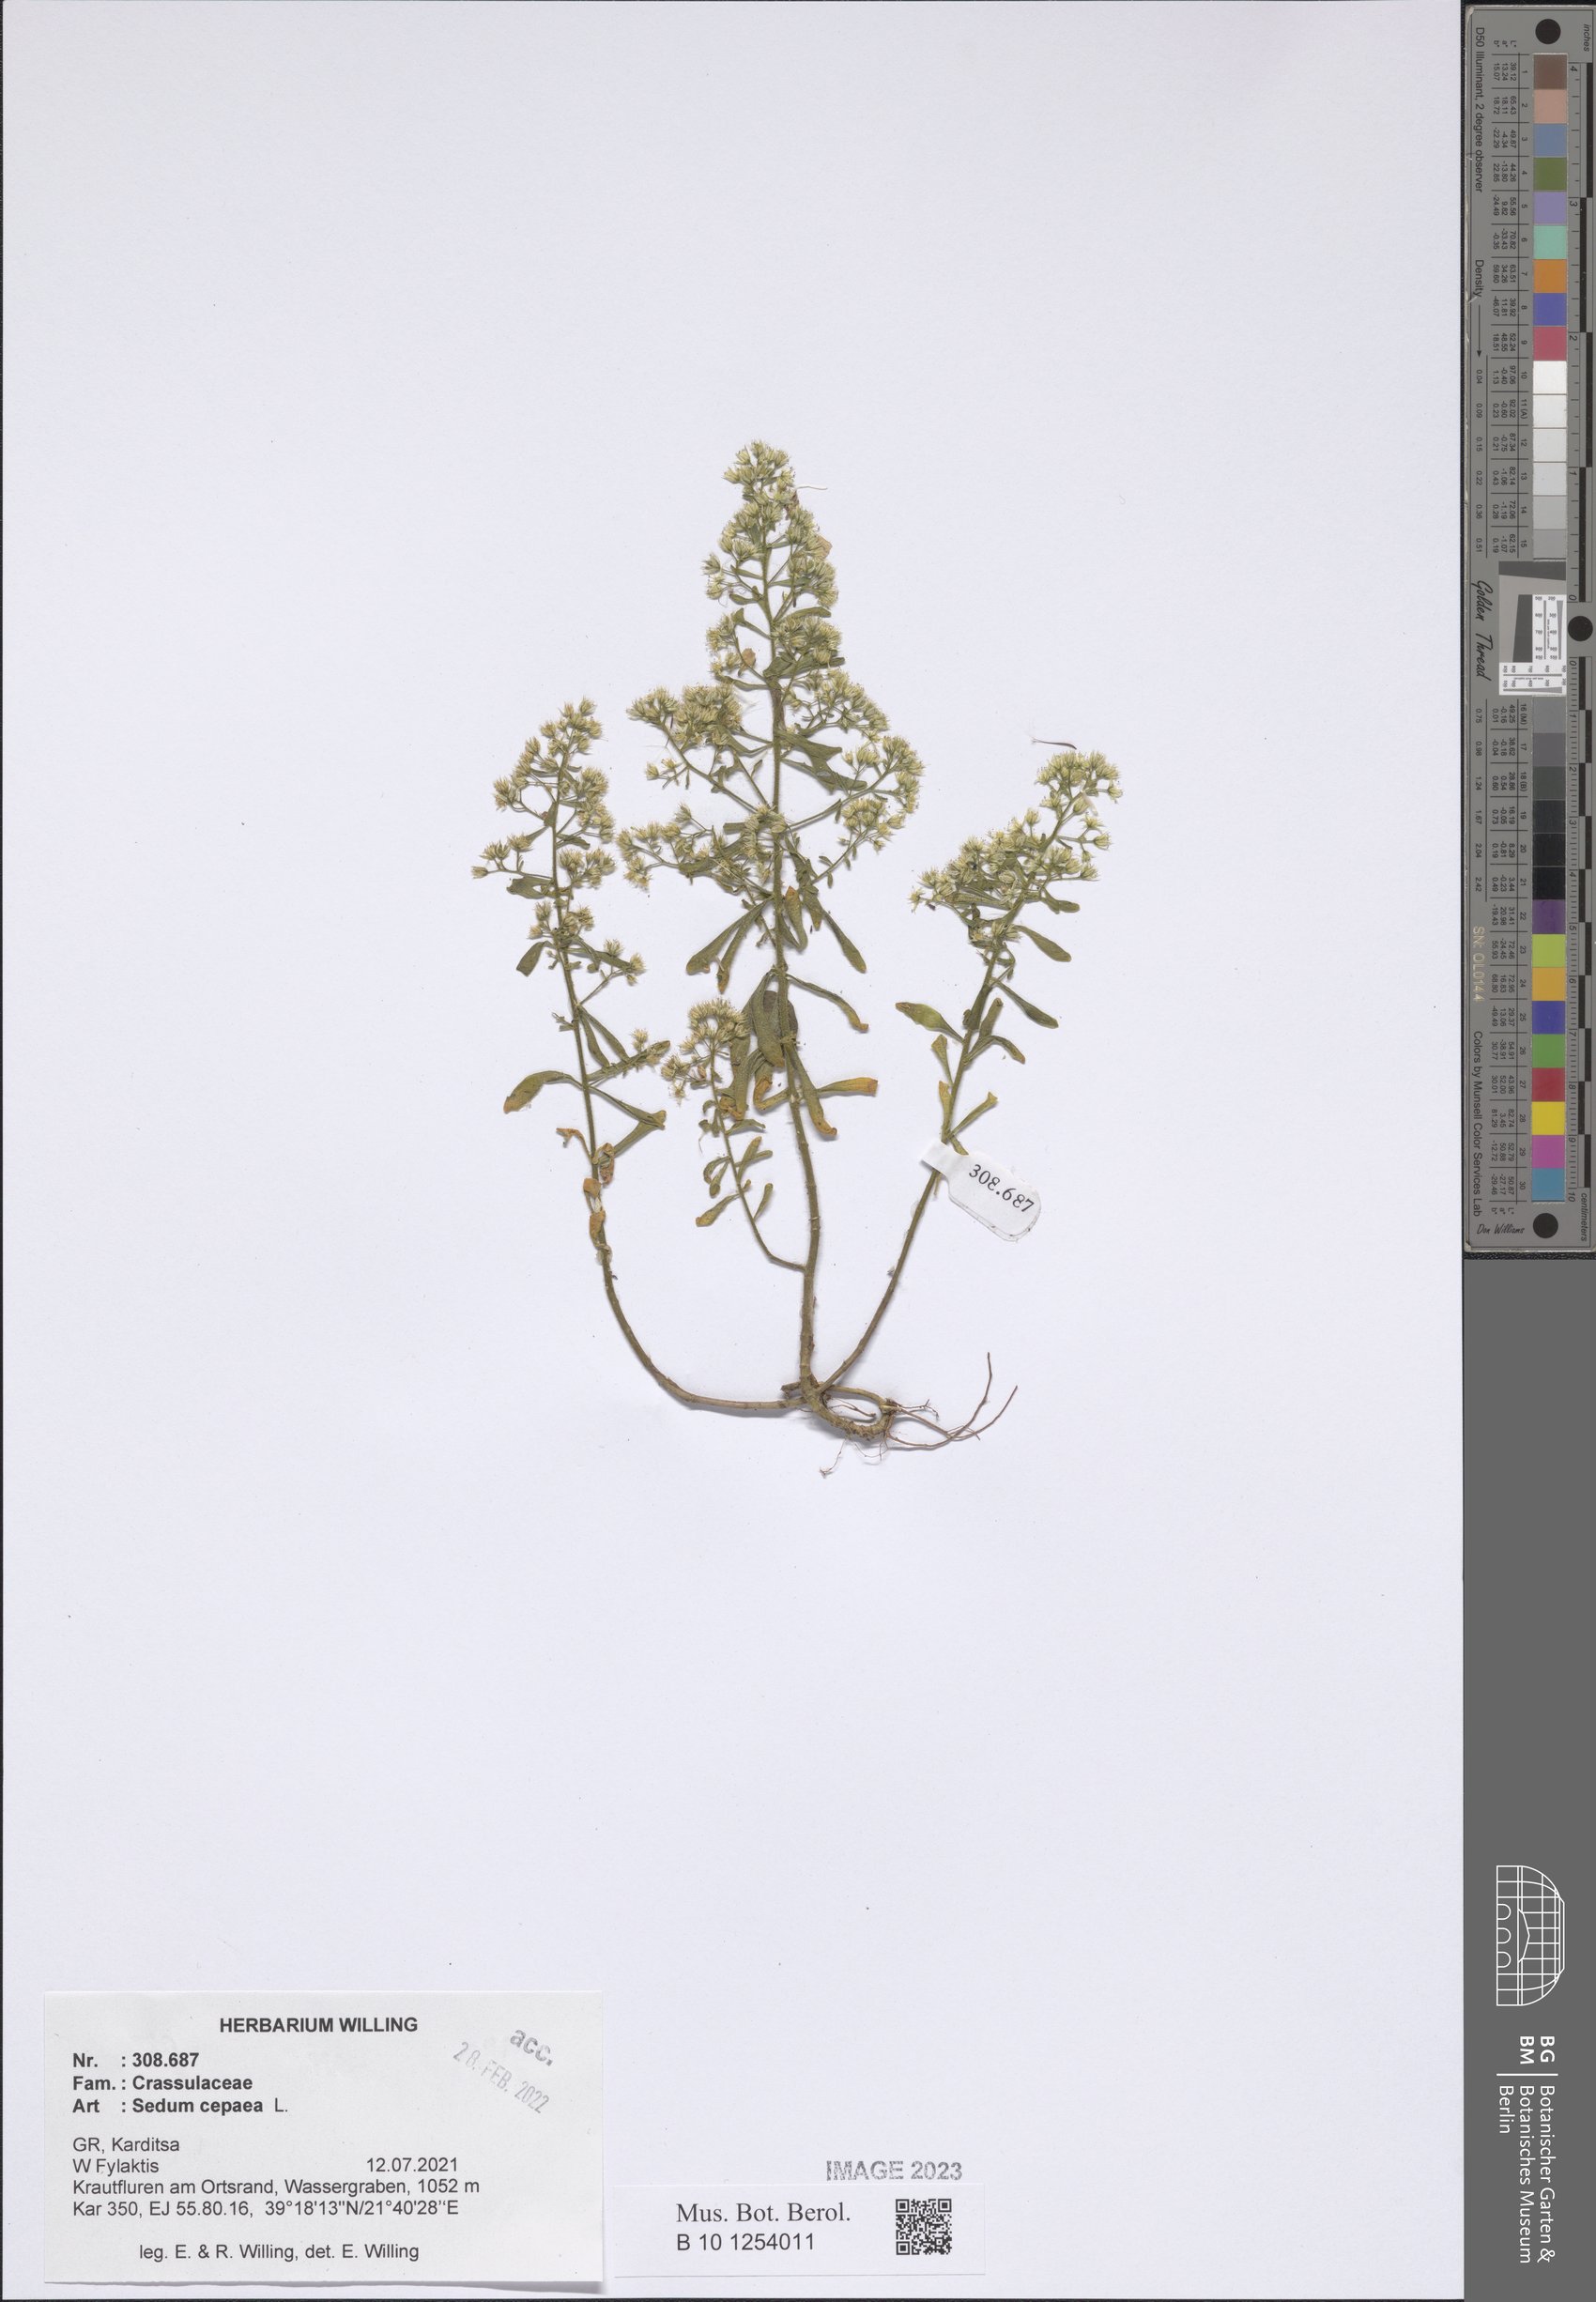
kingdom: Plantae
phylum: Tracheophyta
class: Magnoliopsida
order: Saxifragales
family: Crassulaceae
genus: Sedum
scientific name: Sedum cepaea
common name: Pink stonecrop
